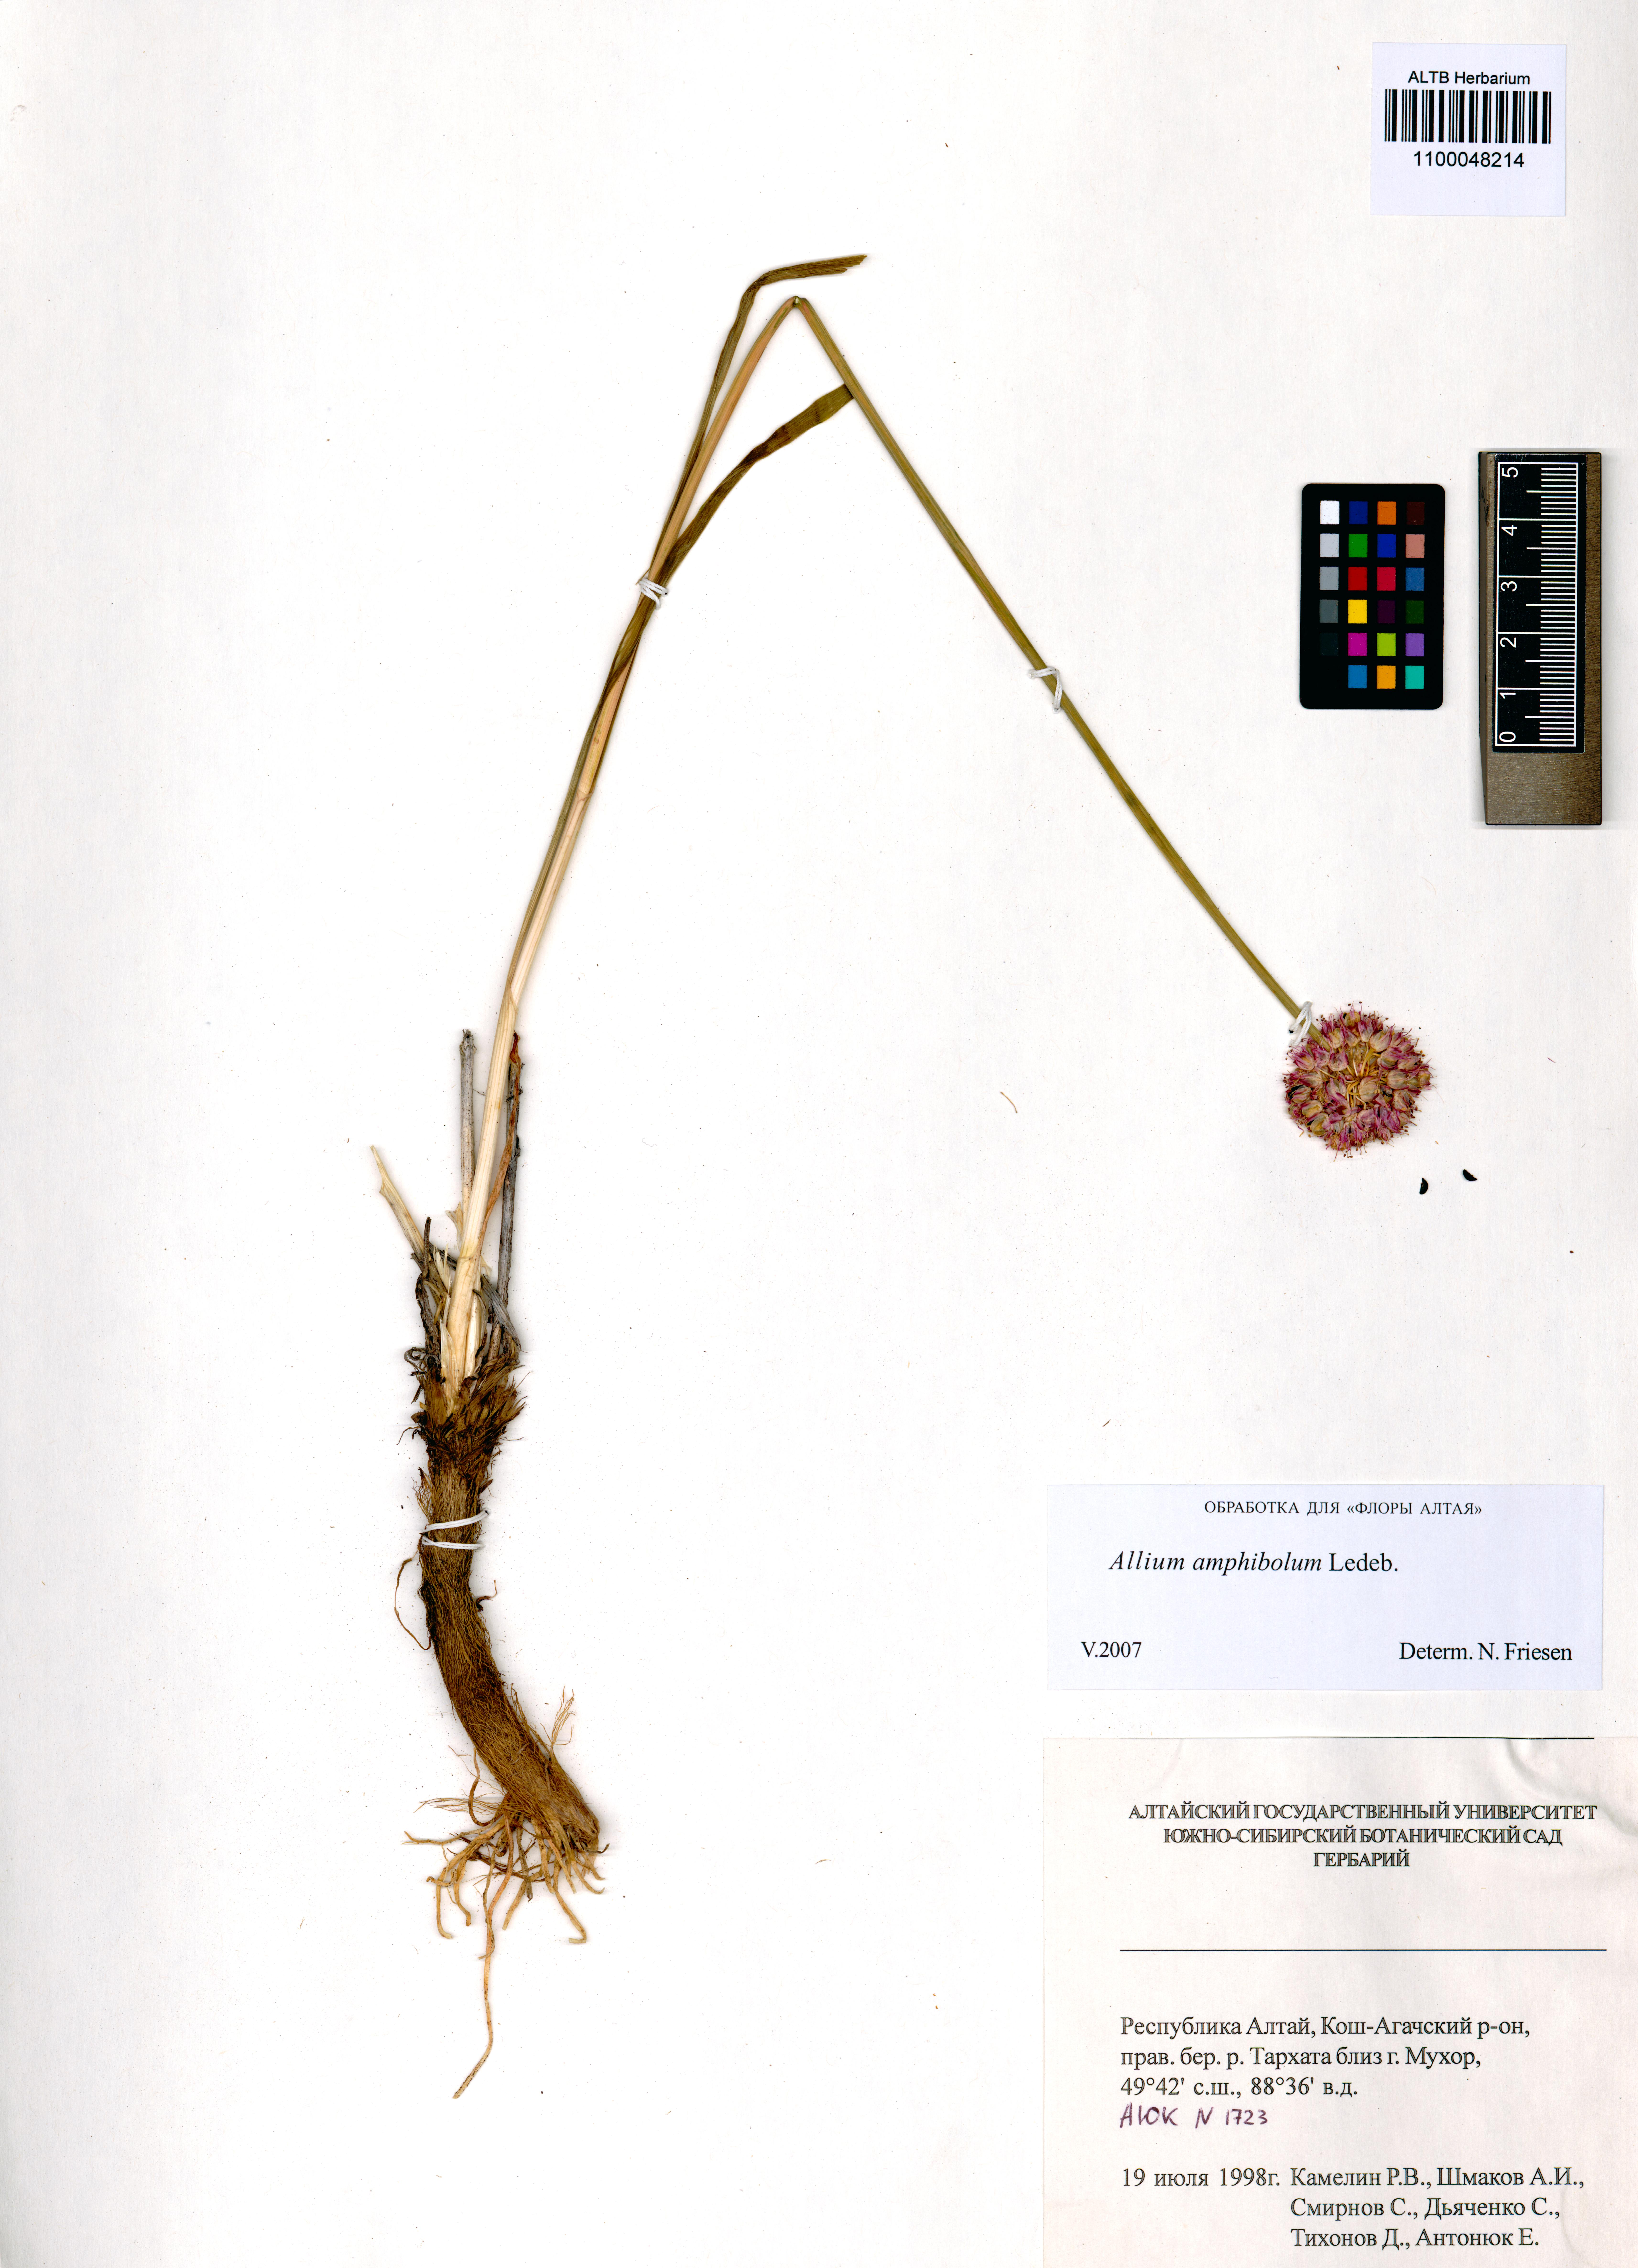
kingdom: Plantae
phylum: Tracheophyta
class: Liliopsida
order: Asparagales
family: Amaryllidaceae
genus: Allium
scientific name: Allium amphibolum
